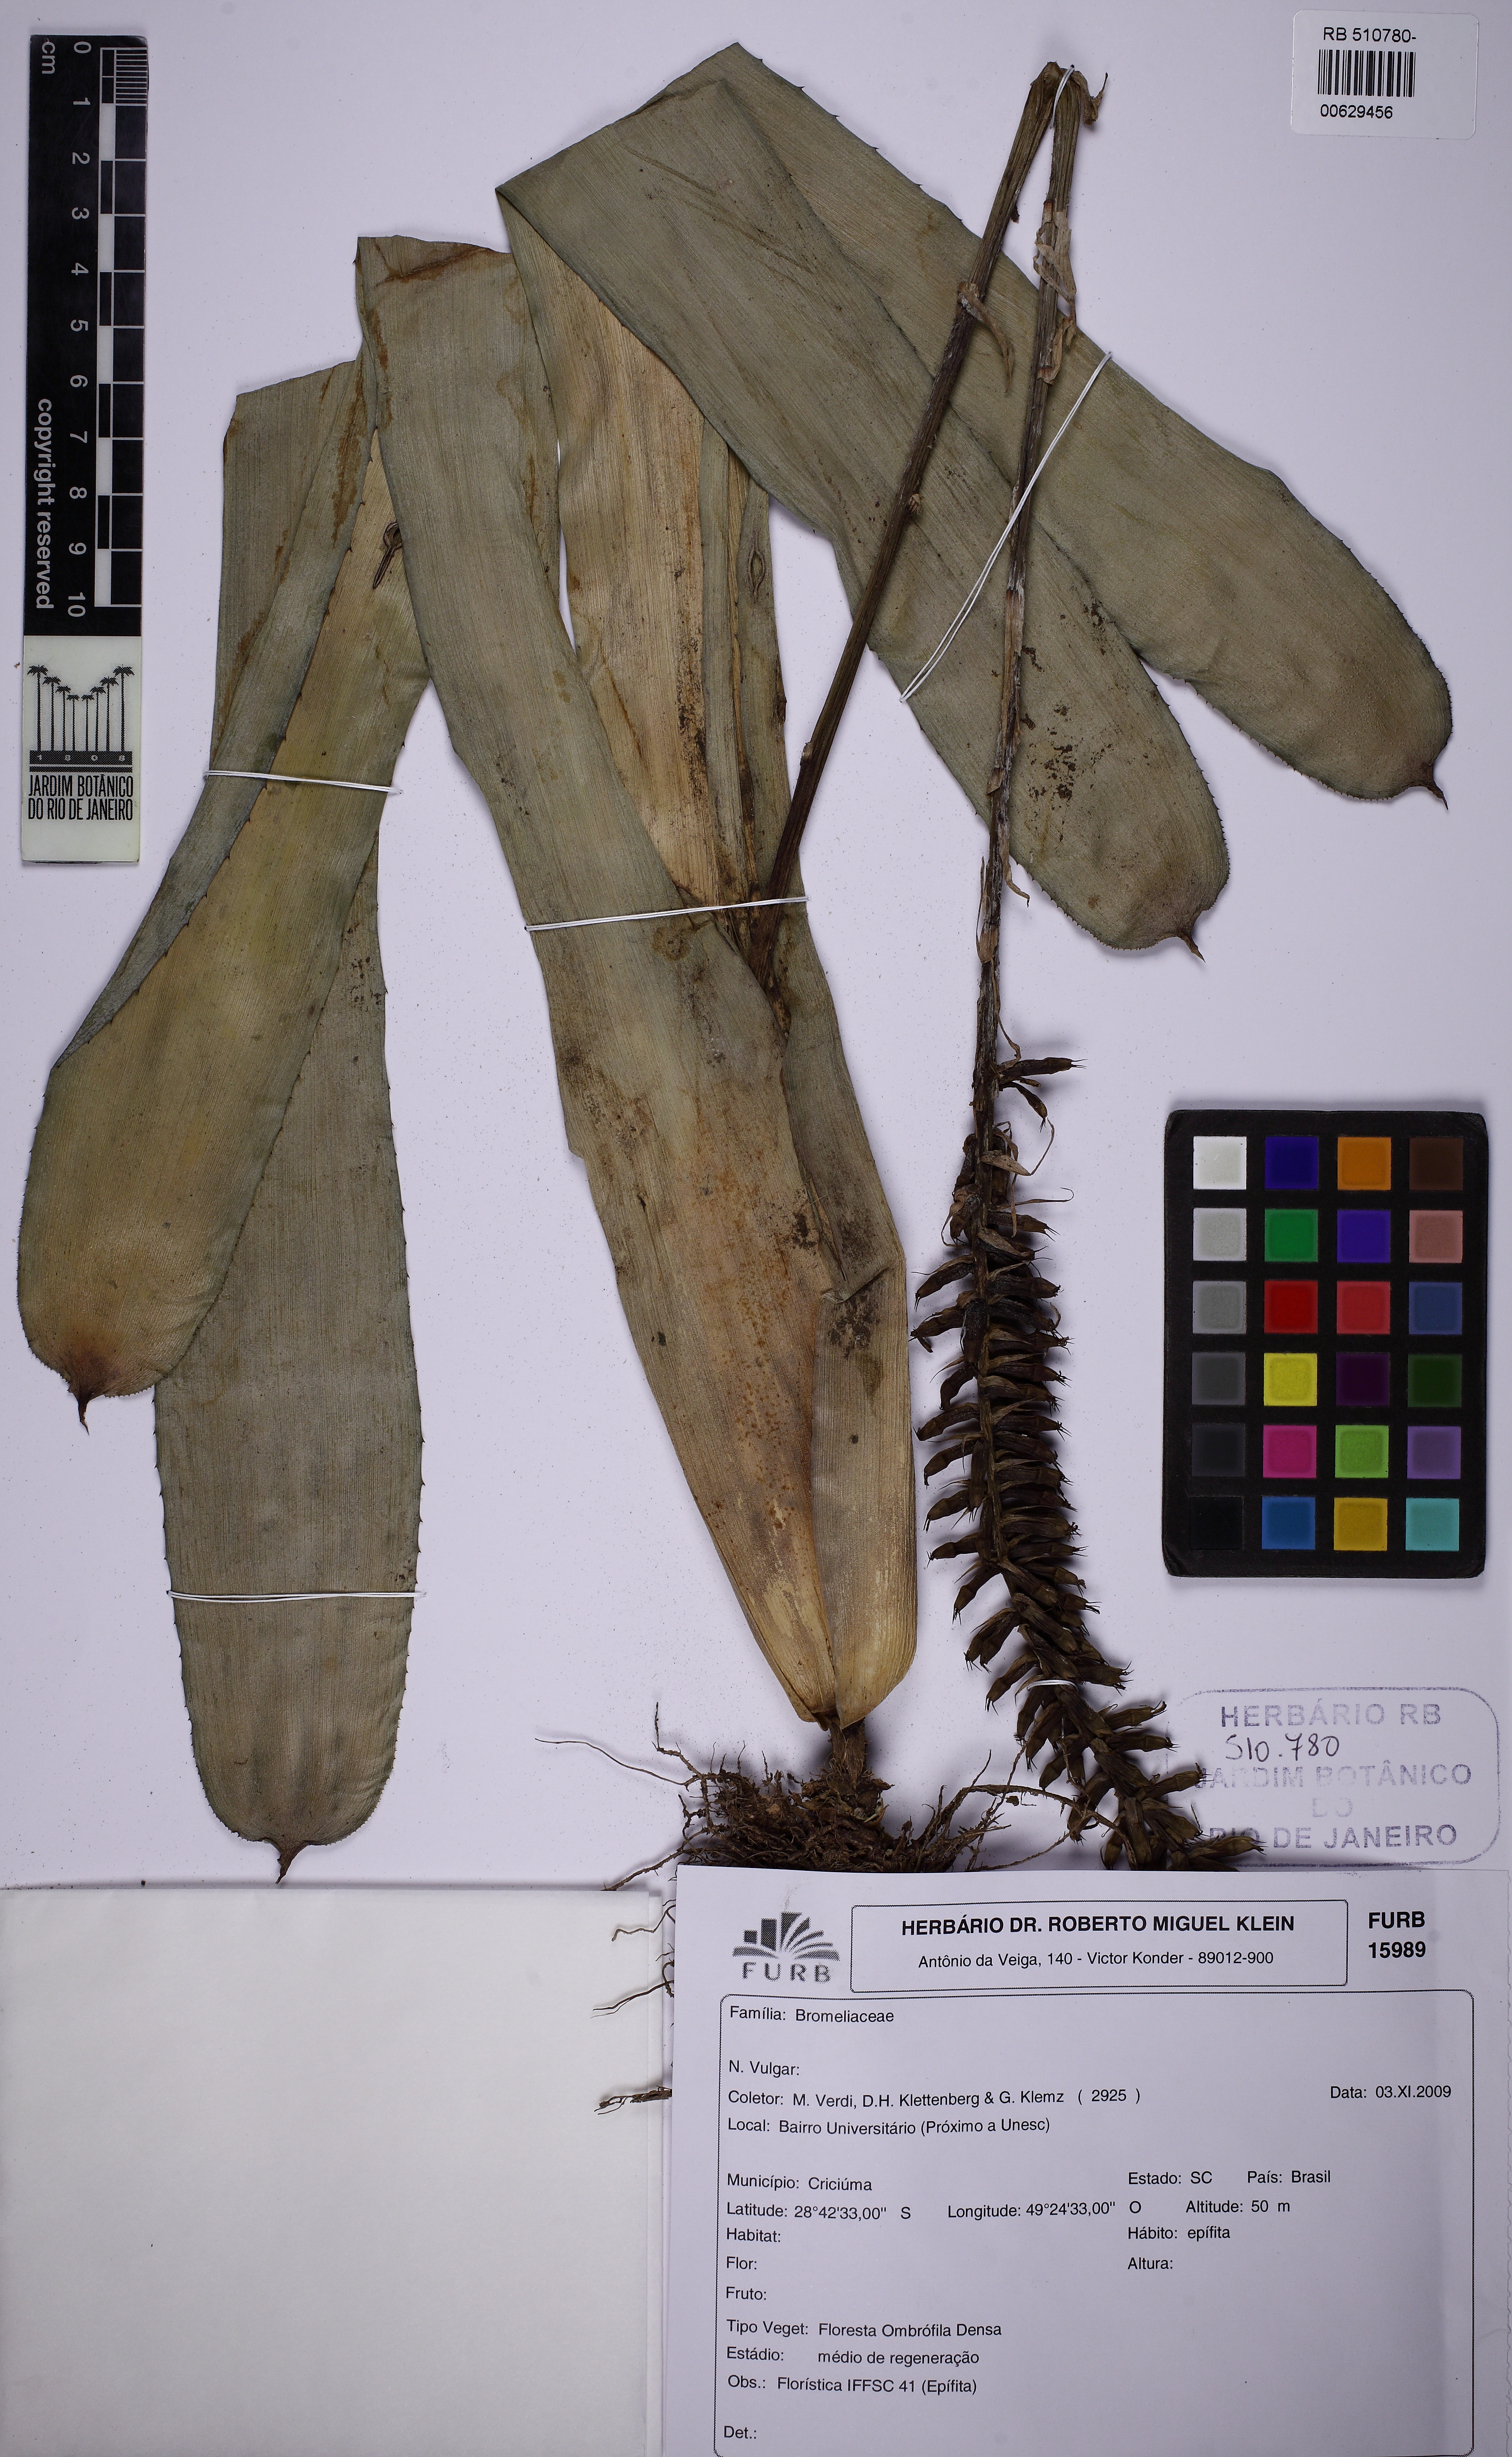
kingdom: Plantae
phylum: Tracheophyta
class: Liliopsida
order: Poales
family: Bromeliaceae
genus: Aechmea
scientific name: Aechmea gamosepala
